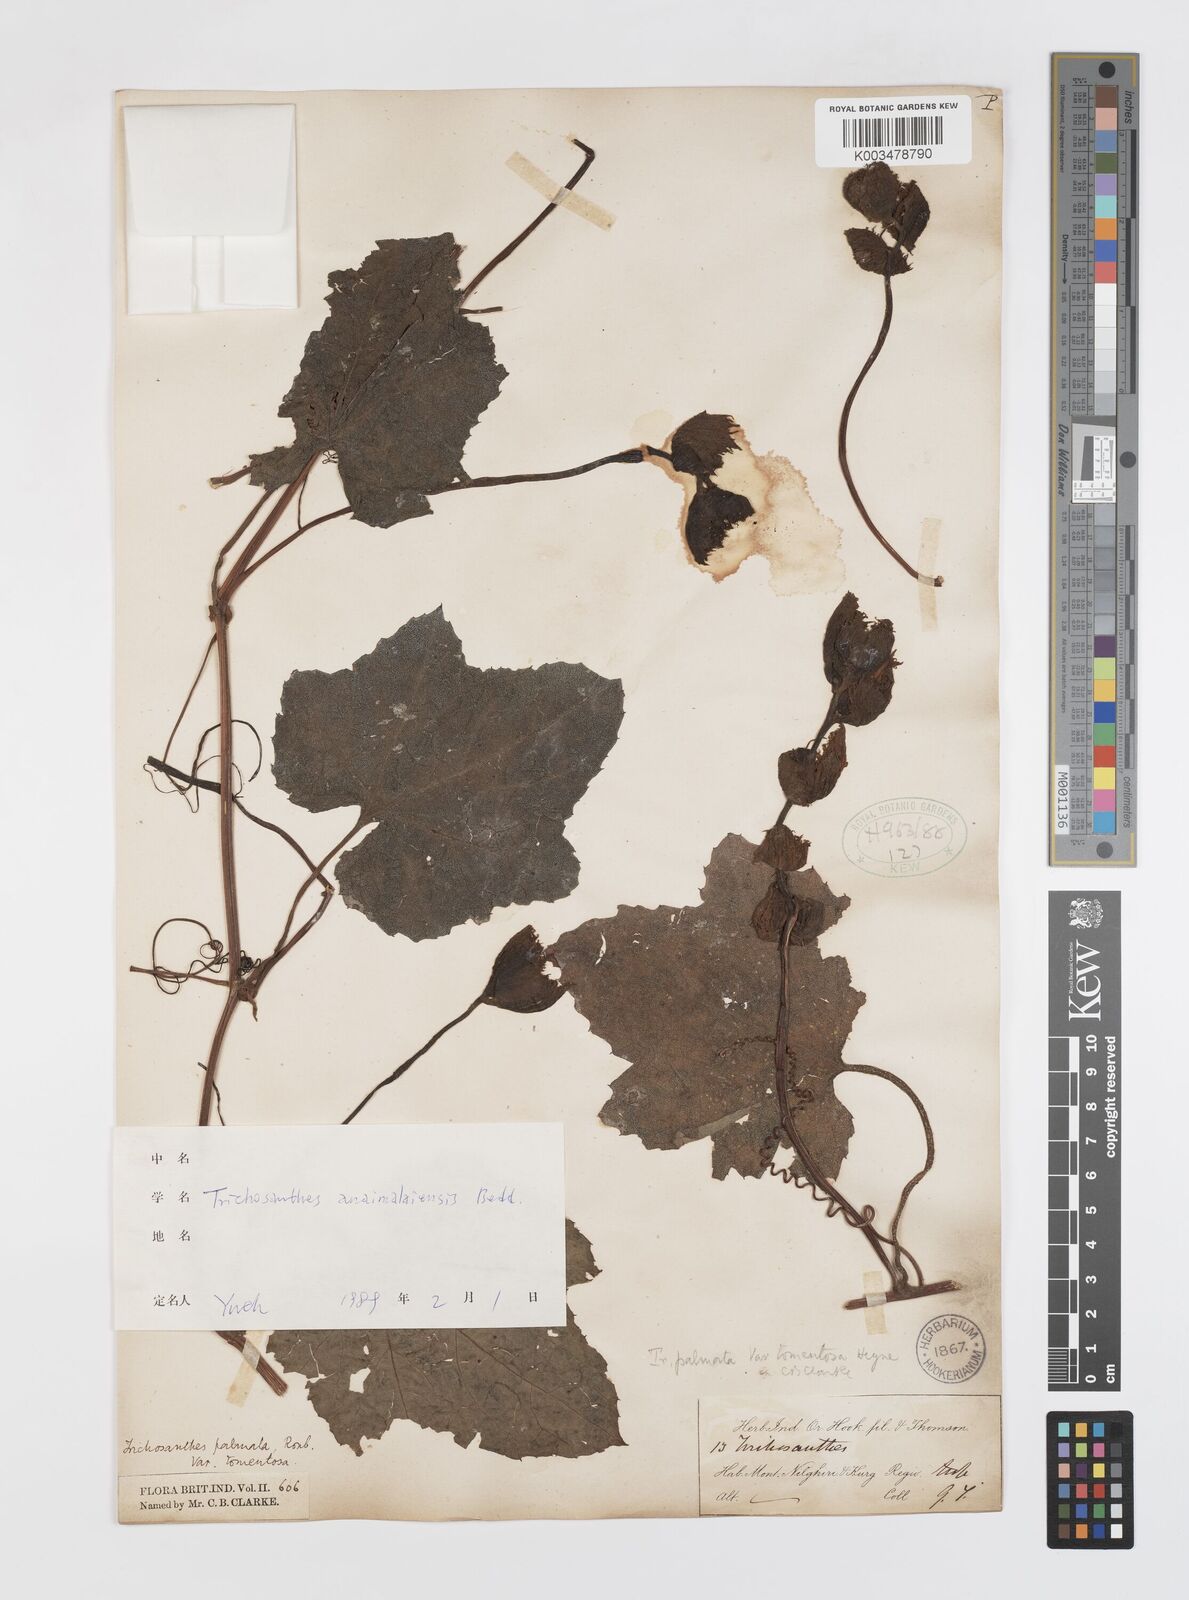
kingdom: Plantae
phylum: Tracheophyta
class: Magnoliopsida
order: Cucurbitales
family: Cucurbitaceae
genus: Trichosanthes
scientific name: Trichosanthes anaimalaiensis
